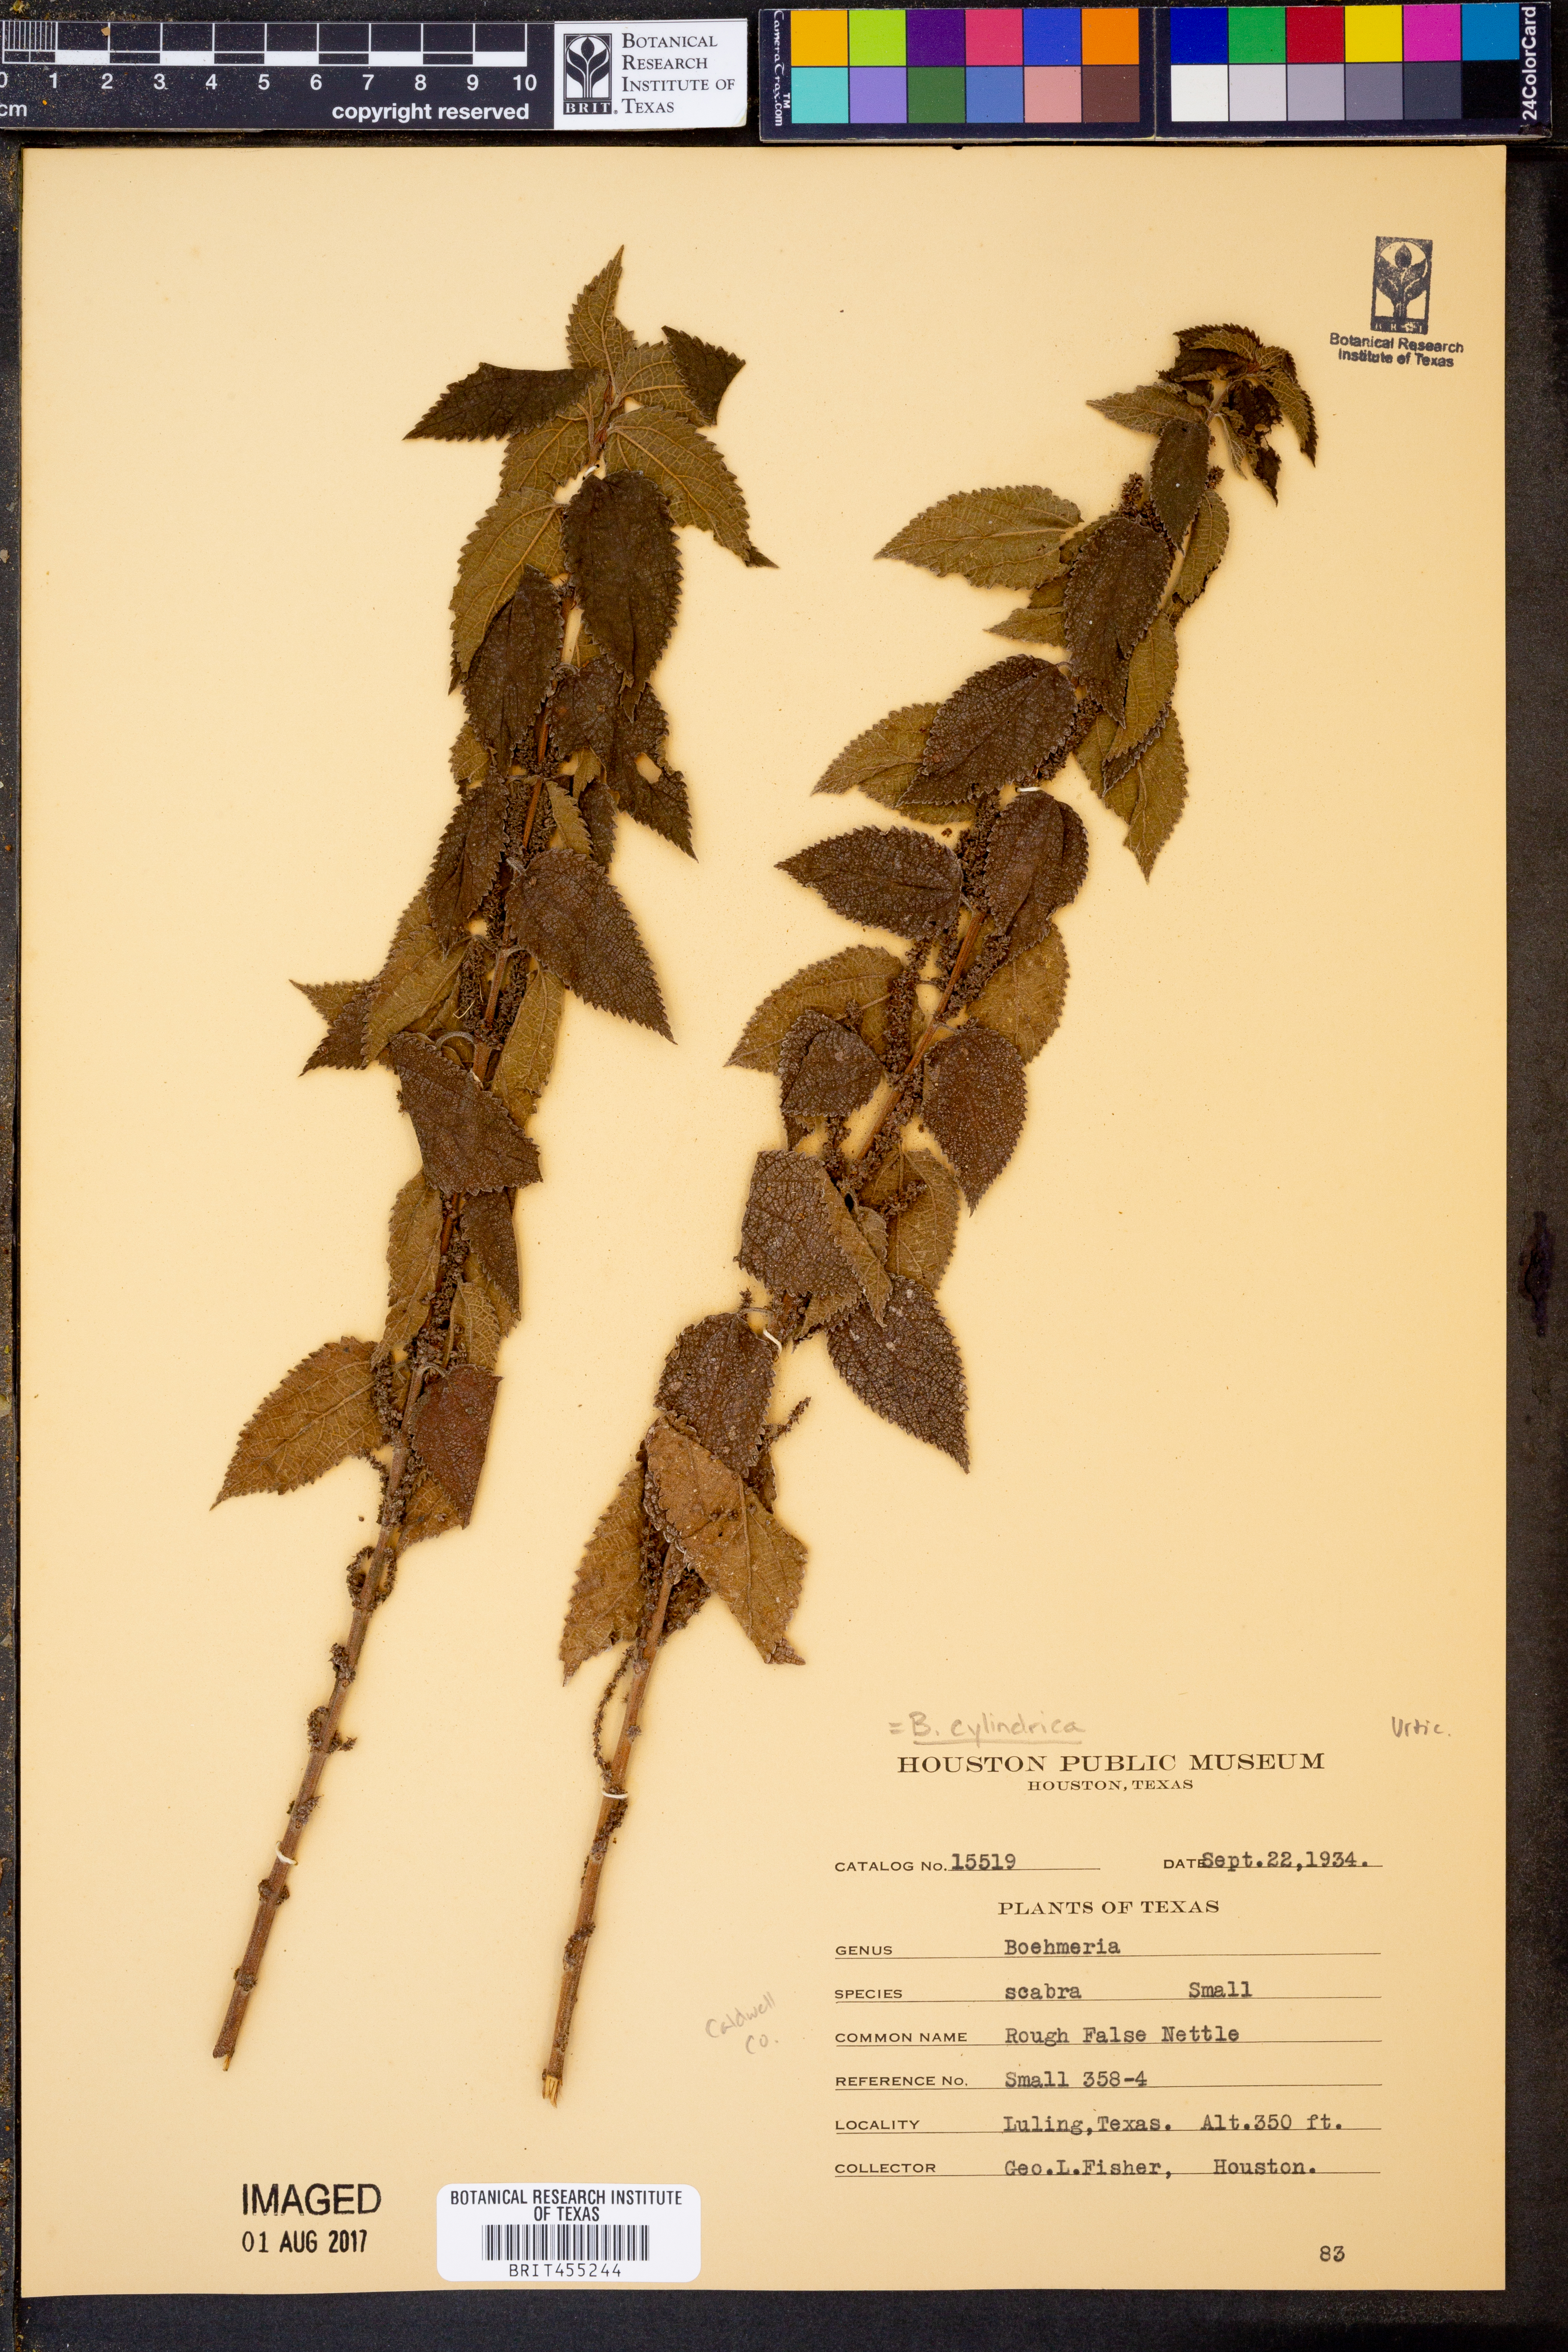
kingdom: Plantae
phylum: Tracheophyta
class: Magnoliopsida
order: Rosales
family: Urticaceae
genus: Boehmeria
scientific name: Boehmeria cylindrica
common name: Bog-hemp
